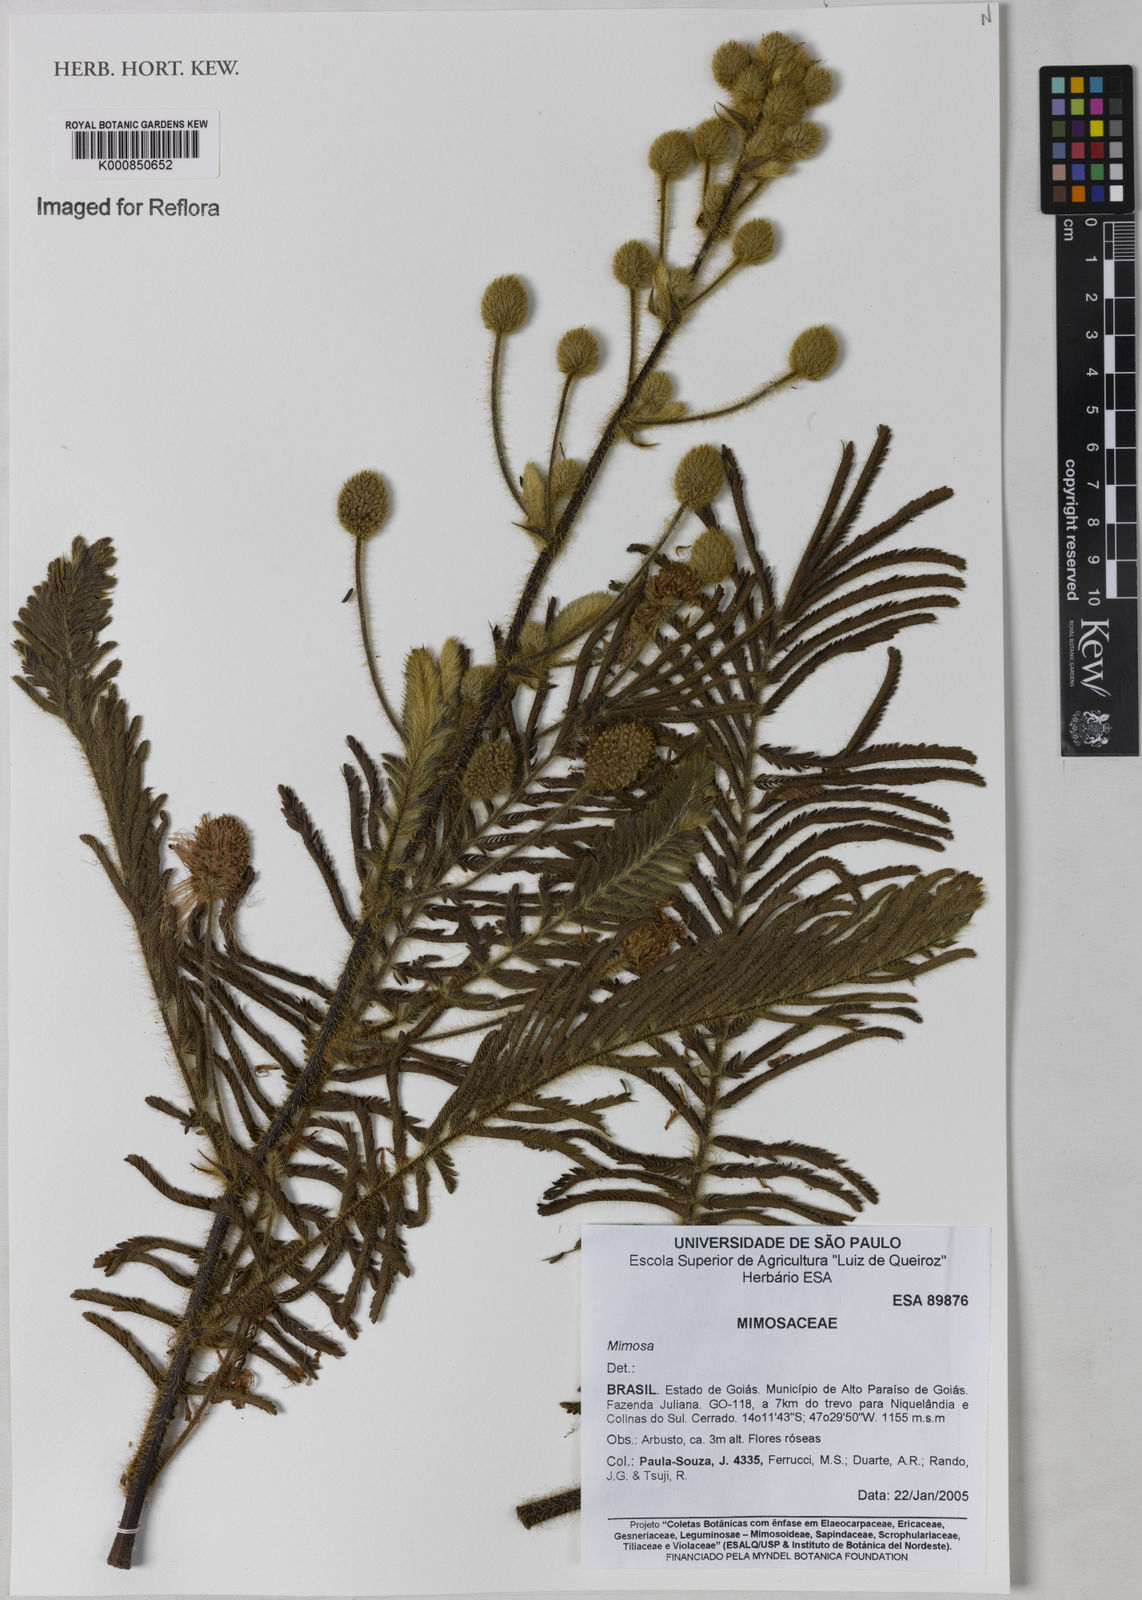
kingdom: Plantae
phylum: Tracheophyta
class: Magnoliopsida
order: Fabales
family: Fabaceae
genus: Mimosa
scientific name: Mimosa dominarum
